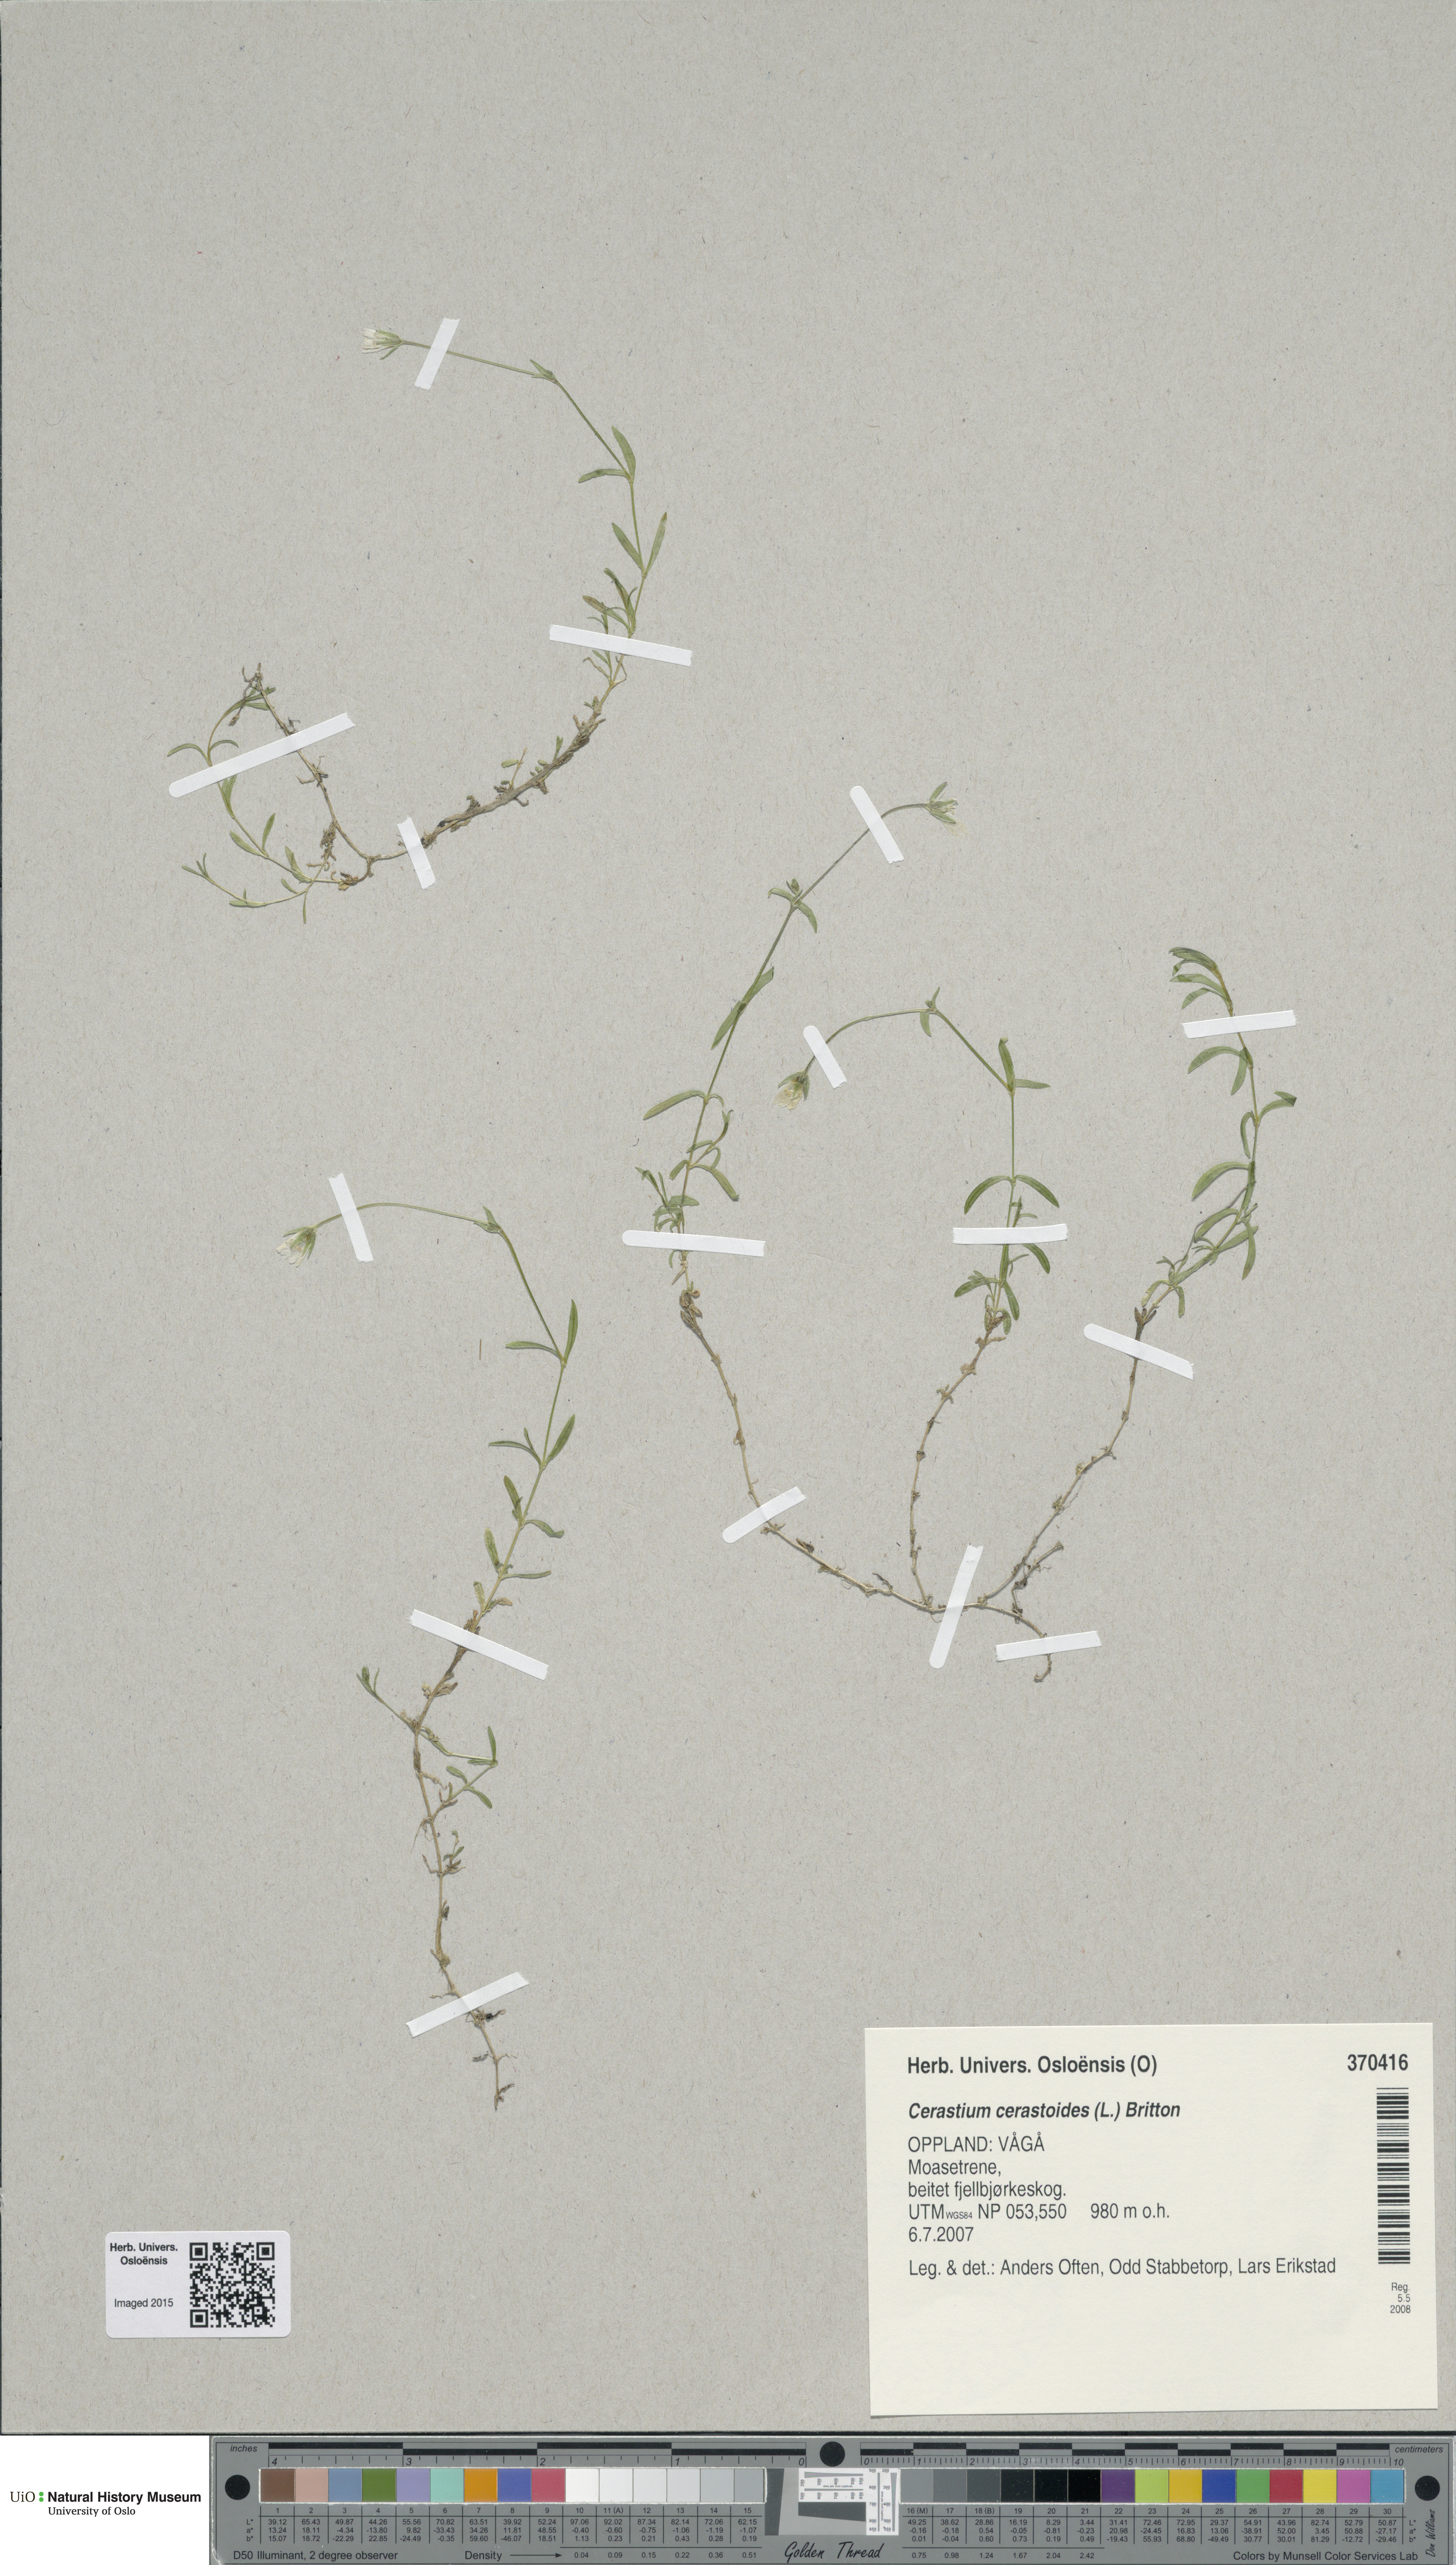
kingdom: Plantae
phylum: Tracheophyta
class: Magnoliopsida
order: Caryophyllales
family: Caryophyllaceae
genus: Dichodon
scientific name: Dichodon cerastoides
